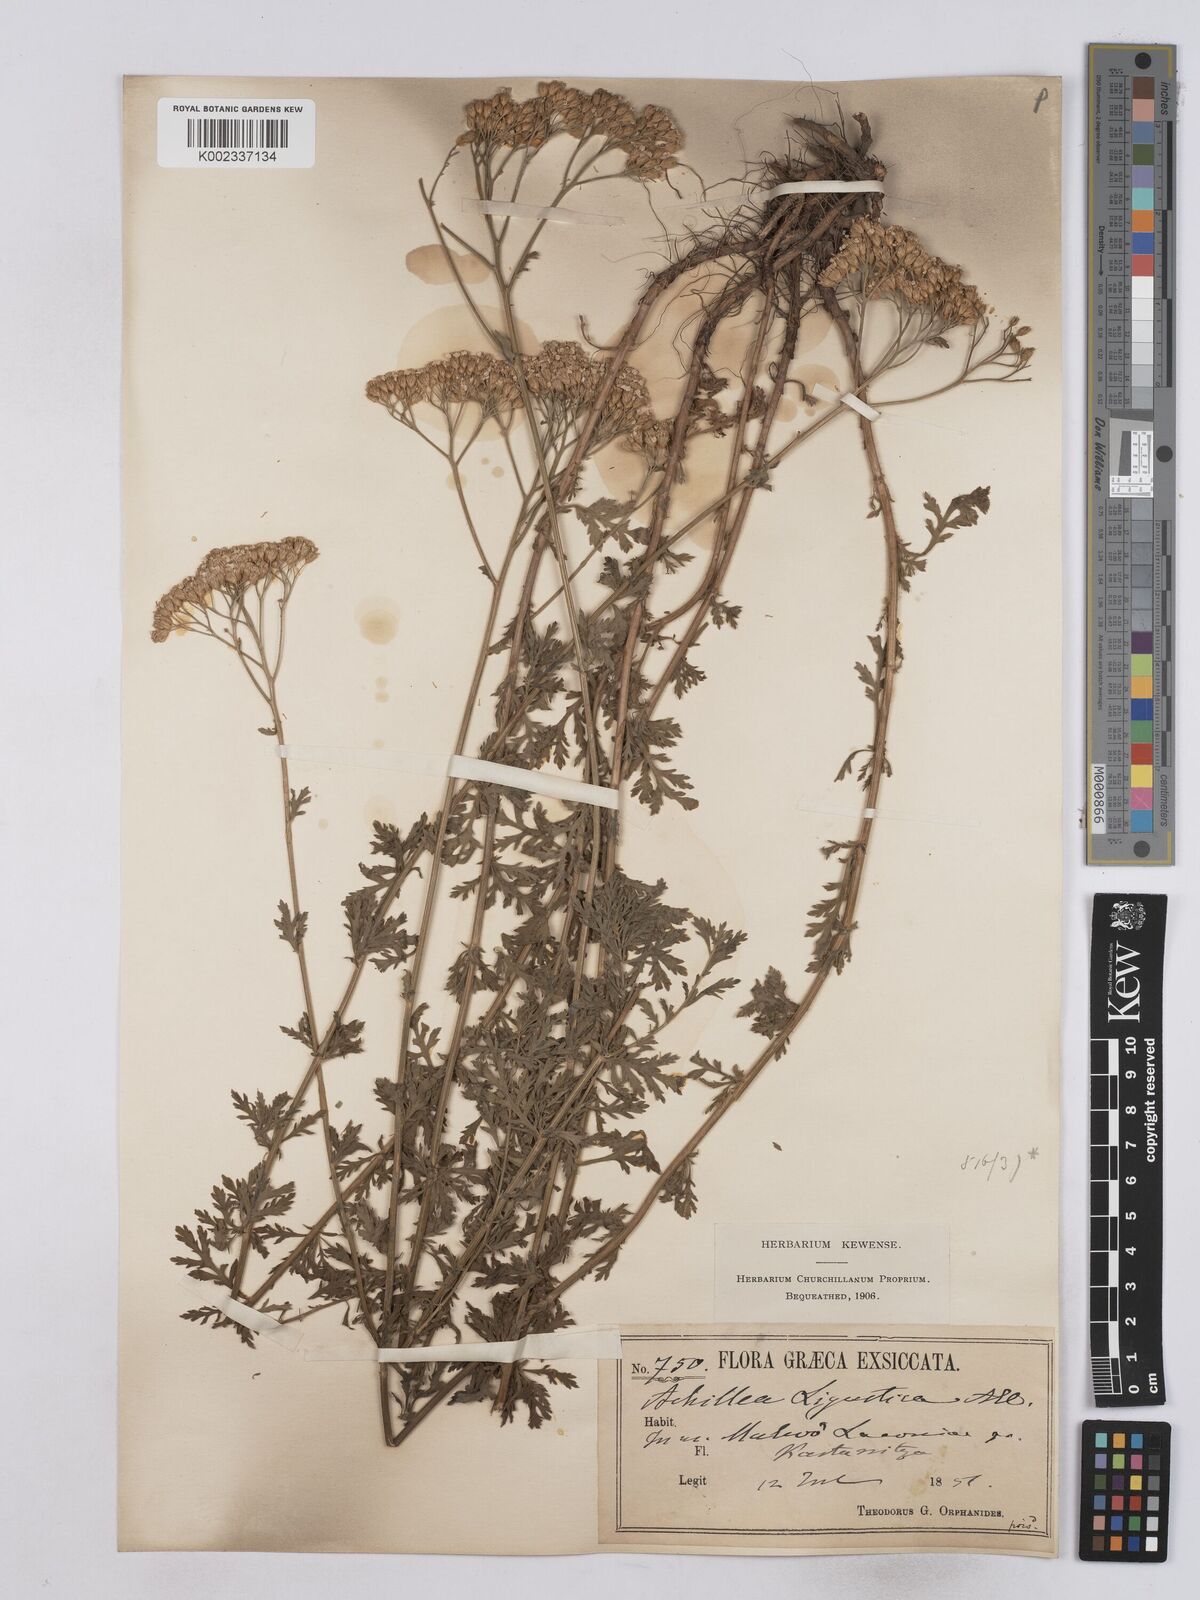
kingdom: Plantae
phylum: Tracheophyta
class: Magnoliopsida
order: Asterales
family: Asteraceae
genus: Achillea
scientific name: Achillea ligustica
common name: Southern yarrow
